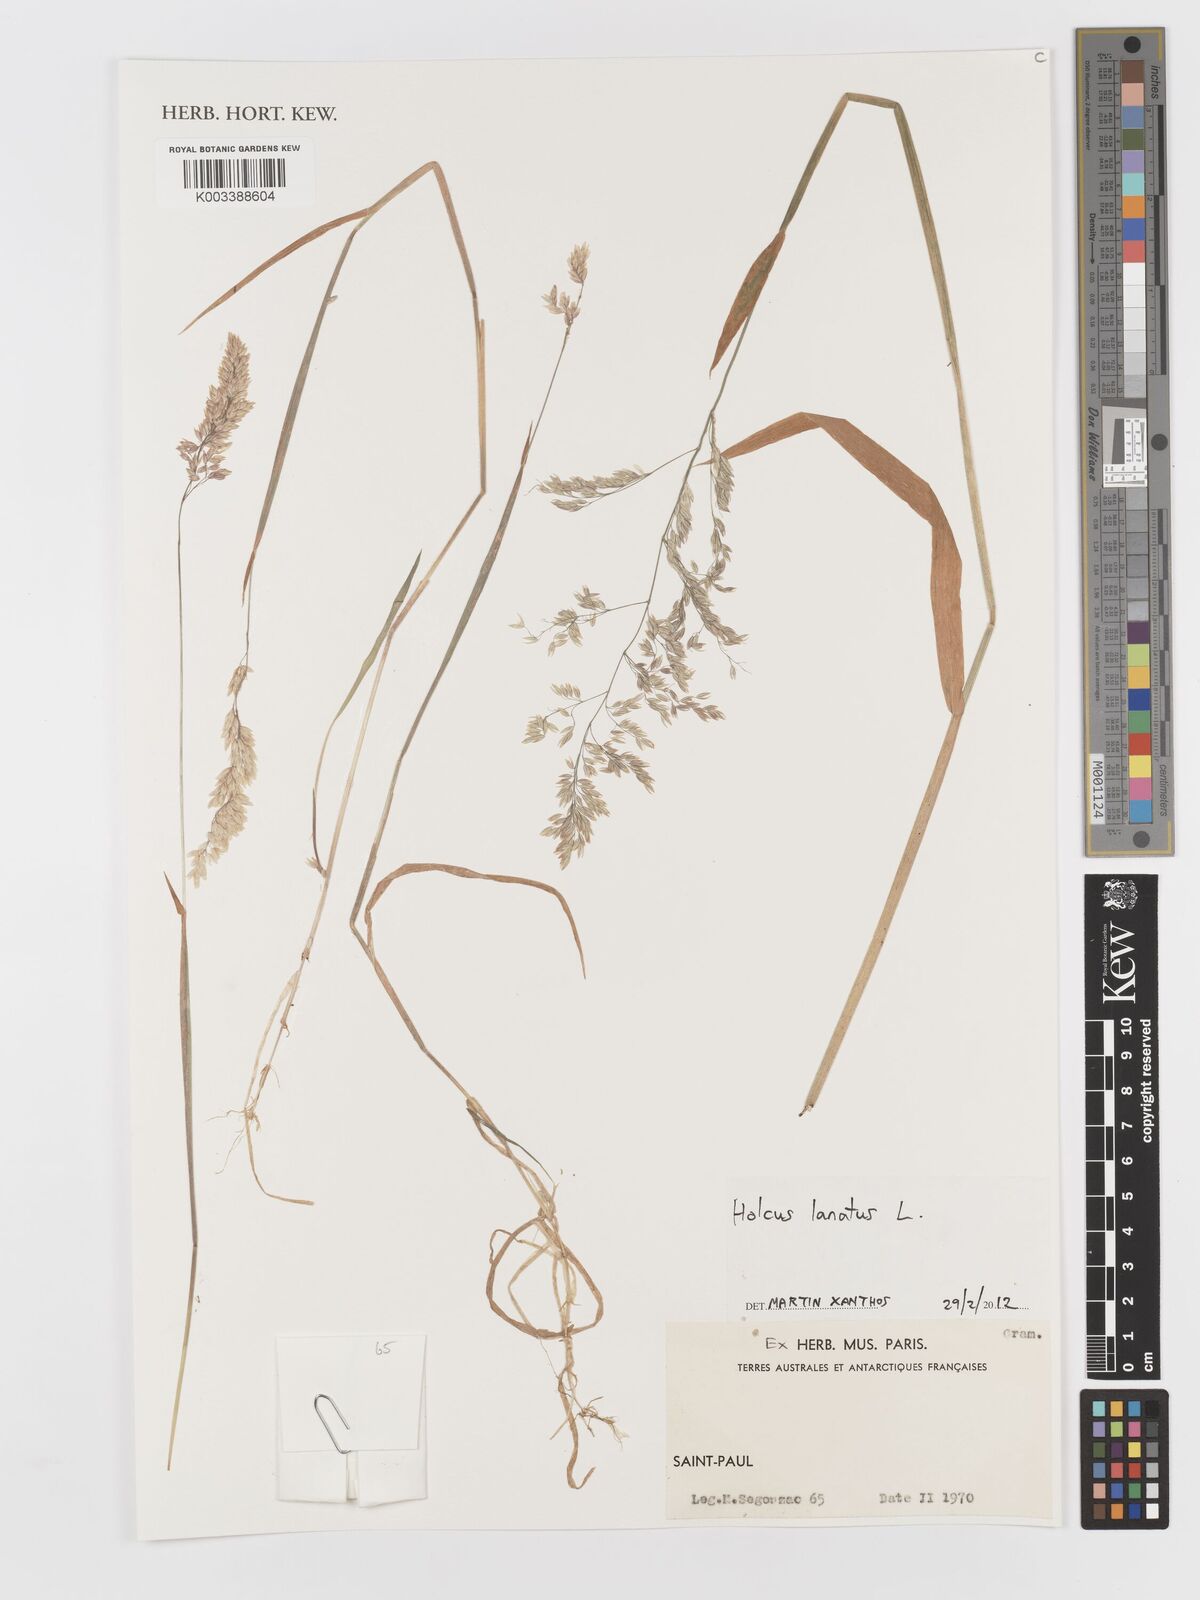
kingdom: Plantae
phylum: Tracheophyta
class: Liliopsida
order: Poales
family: Poaceae
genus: Holcus
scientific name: Holcus lanatus
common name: Yorkshire-fog
